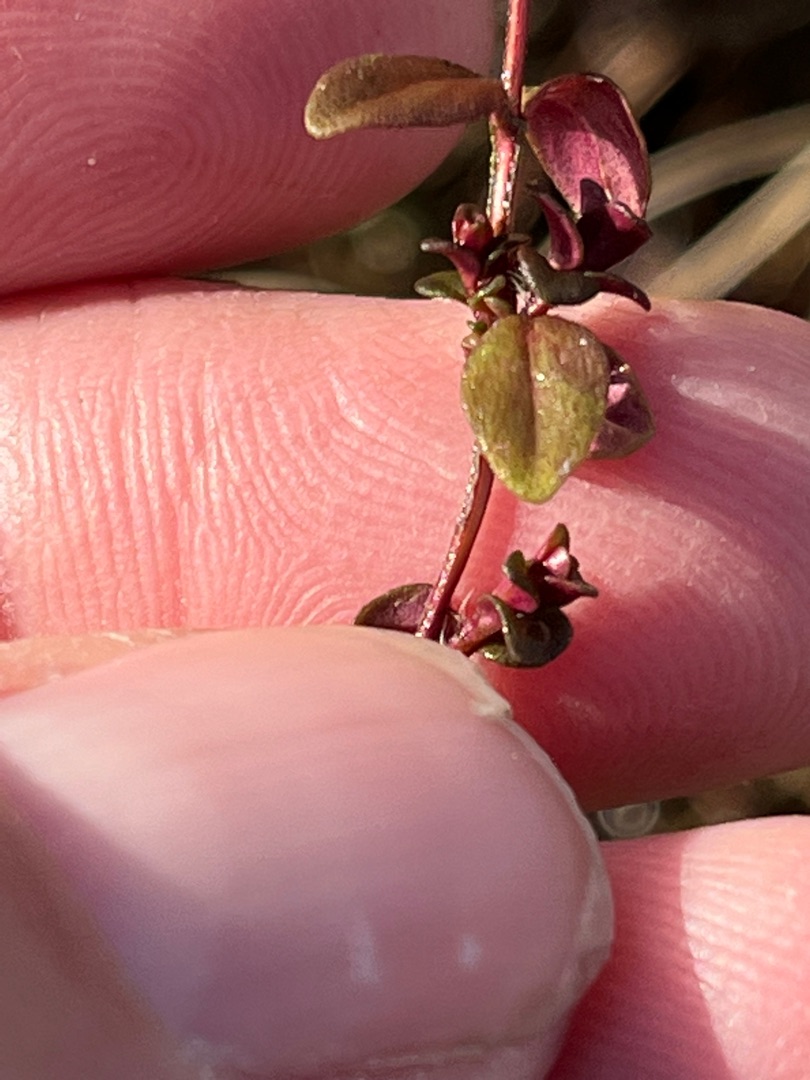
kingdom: Plantae
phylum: Tracheophyta
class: Magnoliopsida
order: Lamiales
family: Lamiaceae
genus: Thymus
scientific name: Thymus pulegioides
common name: Bredbladet timian
